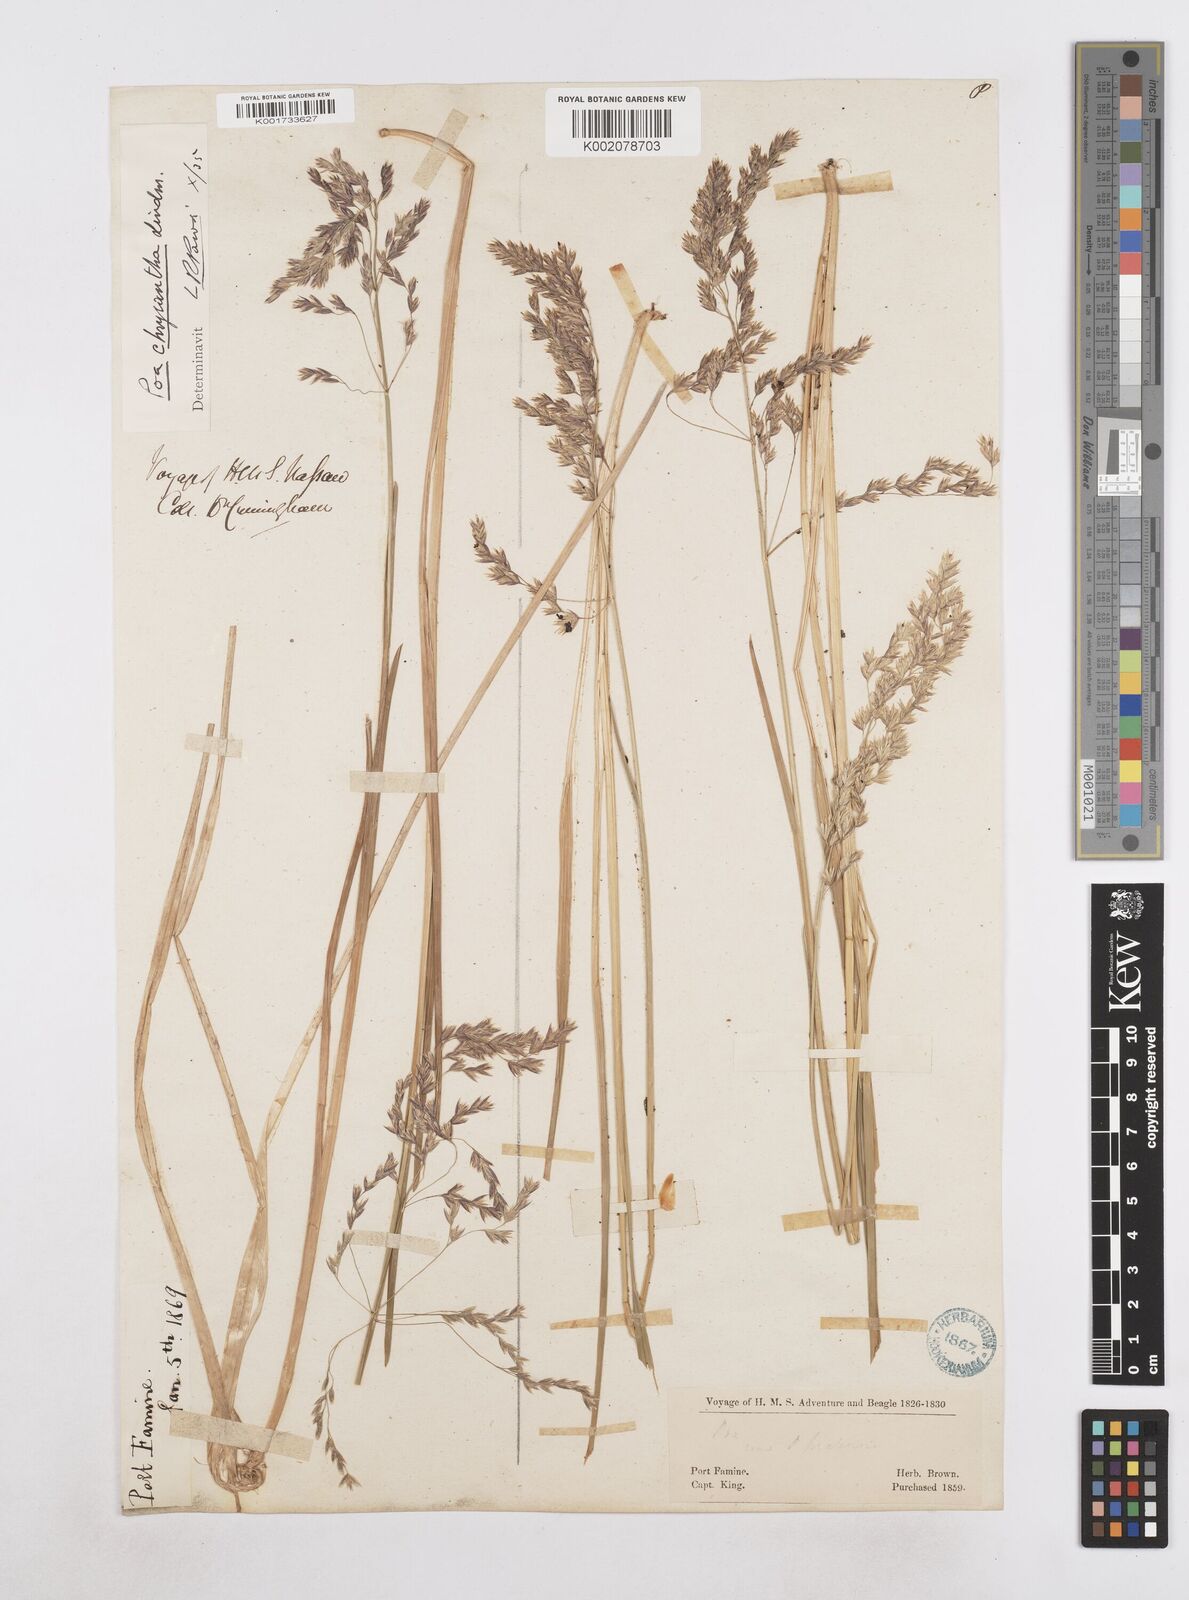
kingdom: Plantae
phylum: Tracheophyta
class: Liliopsida
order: Poales
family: Poaceae
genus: Poa
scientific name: Poa yaganica
